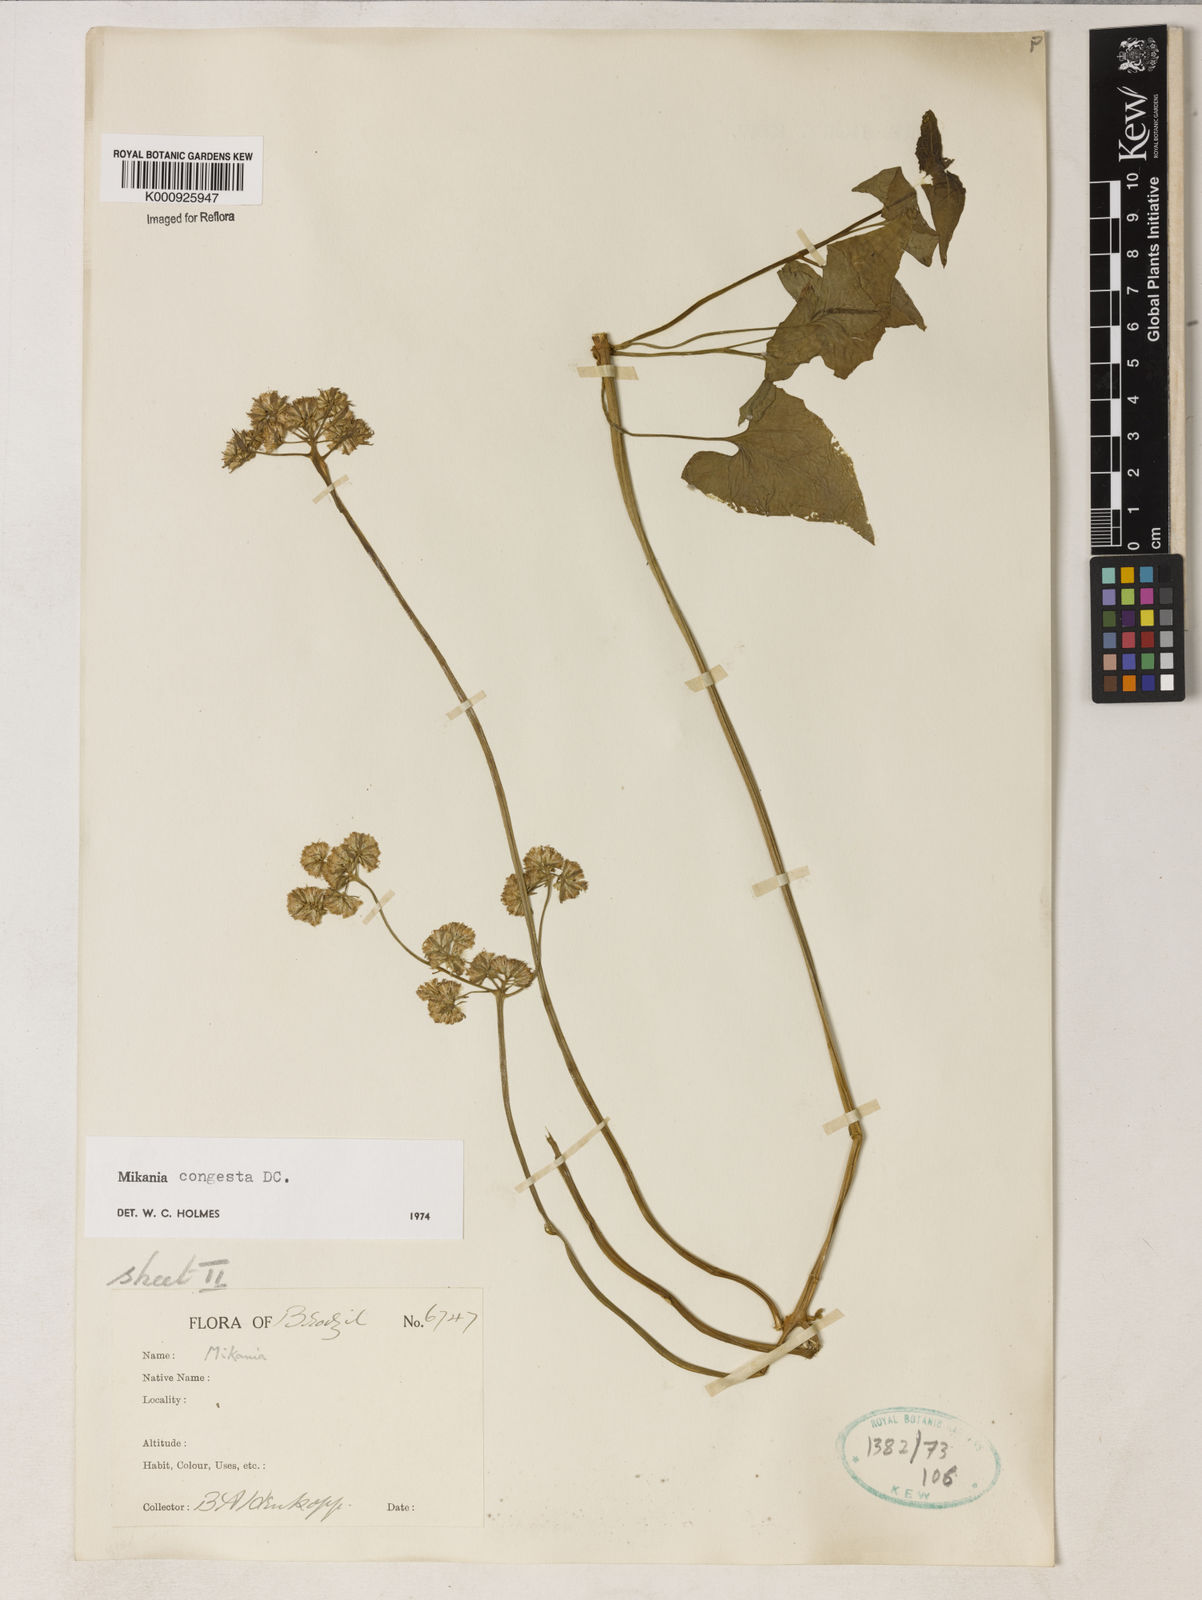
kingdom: Plantae
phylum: Tracheophyta
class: Magnoliopsida
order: Asterales
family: Asteraceae
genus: Mikania
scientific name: Mikania congesta
